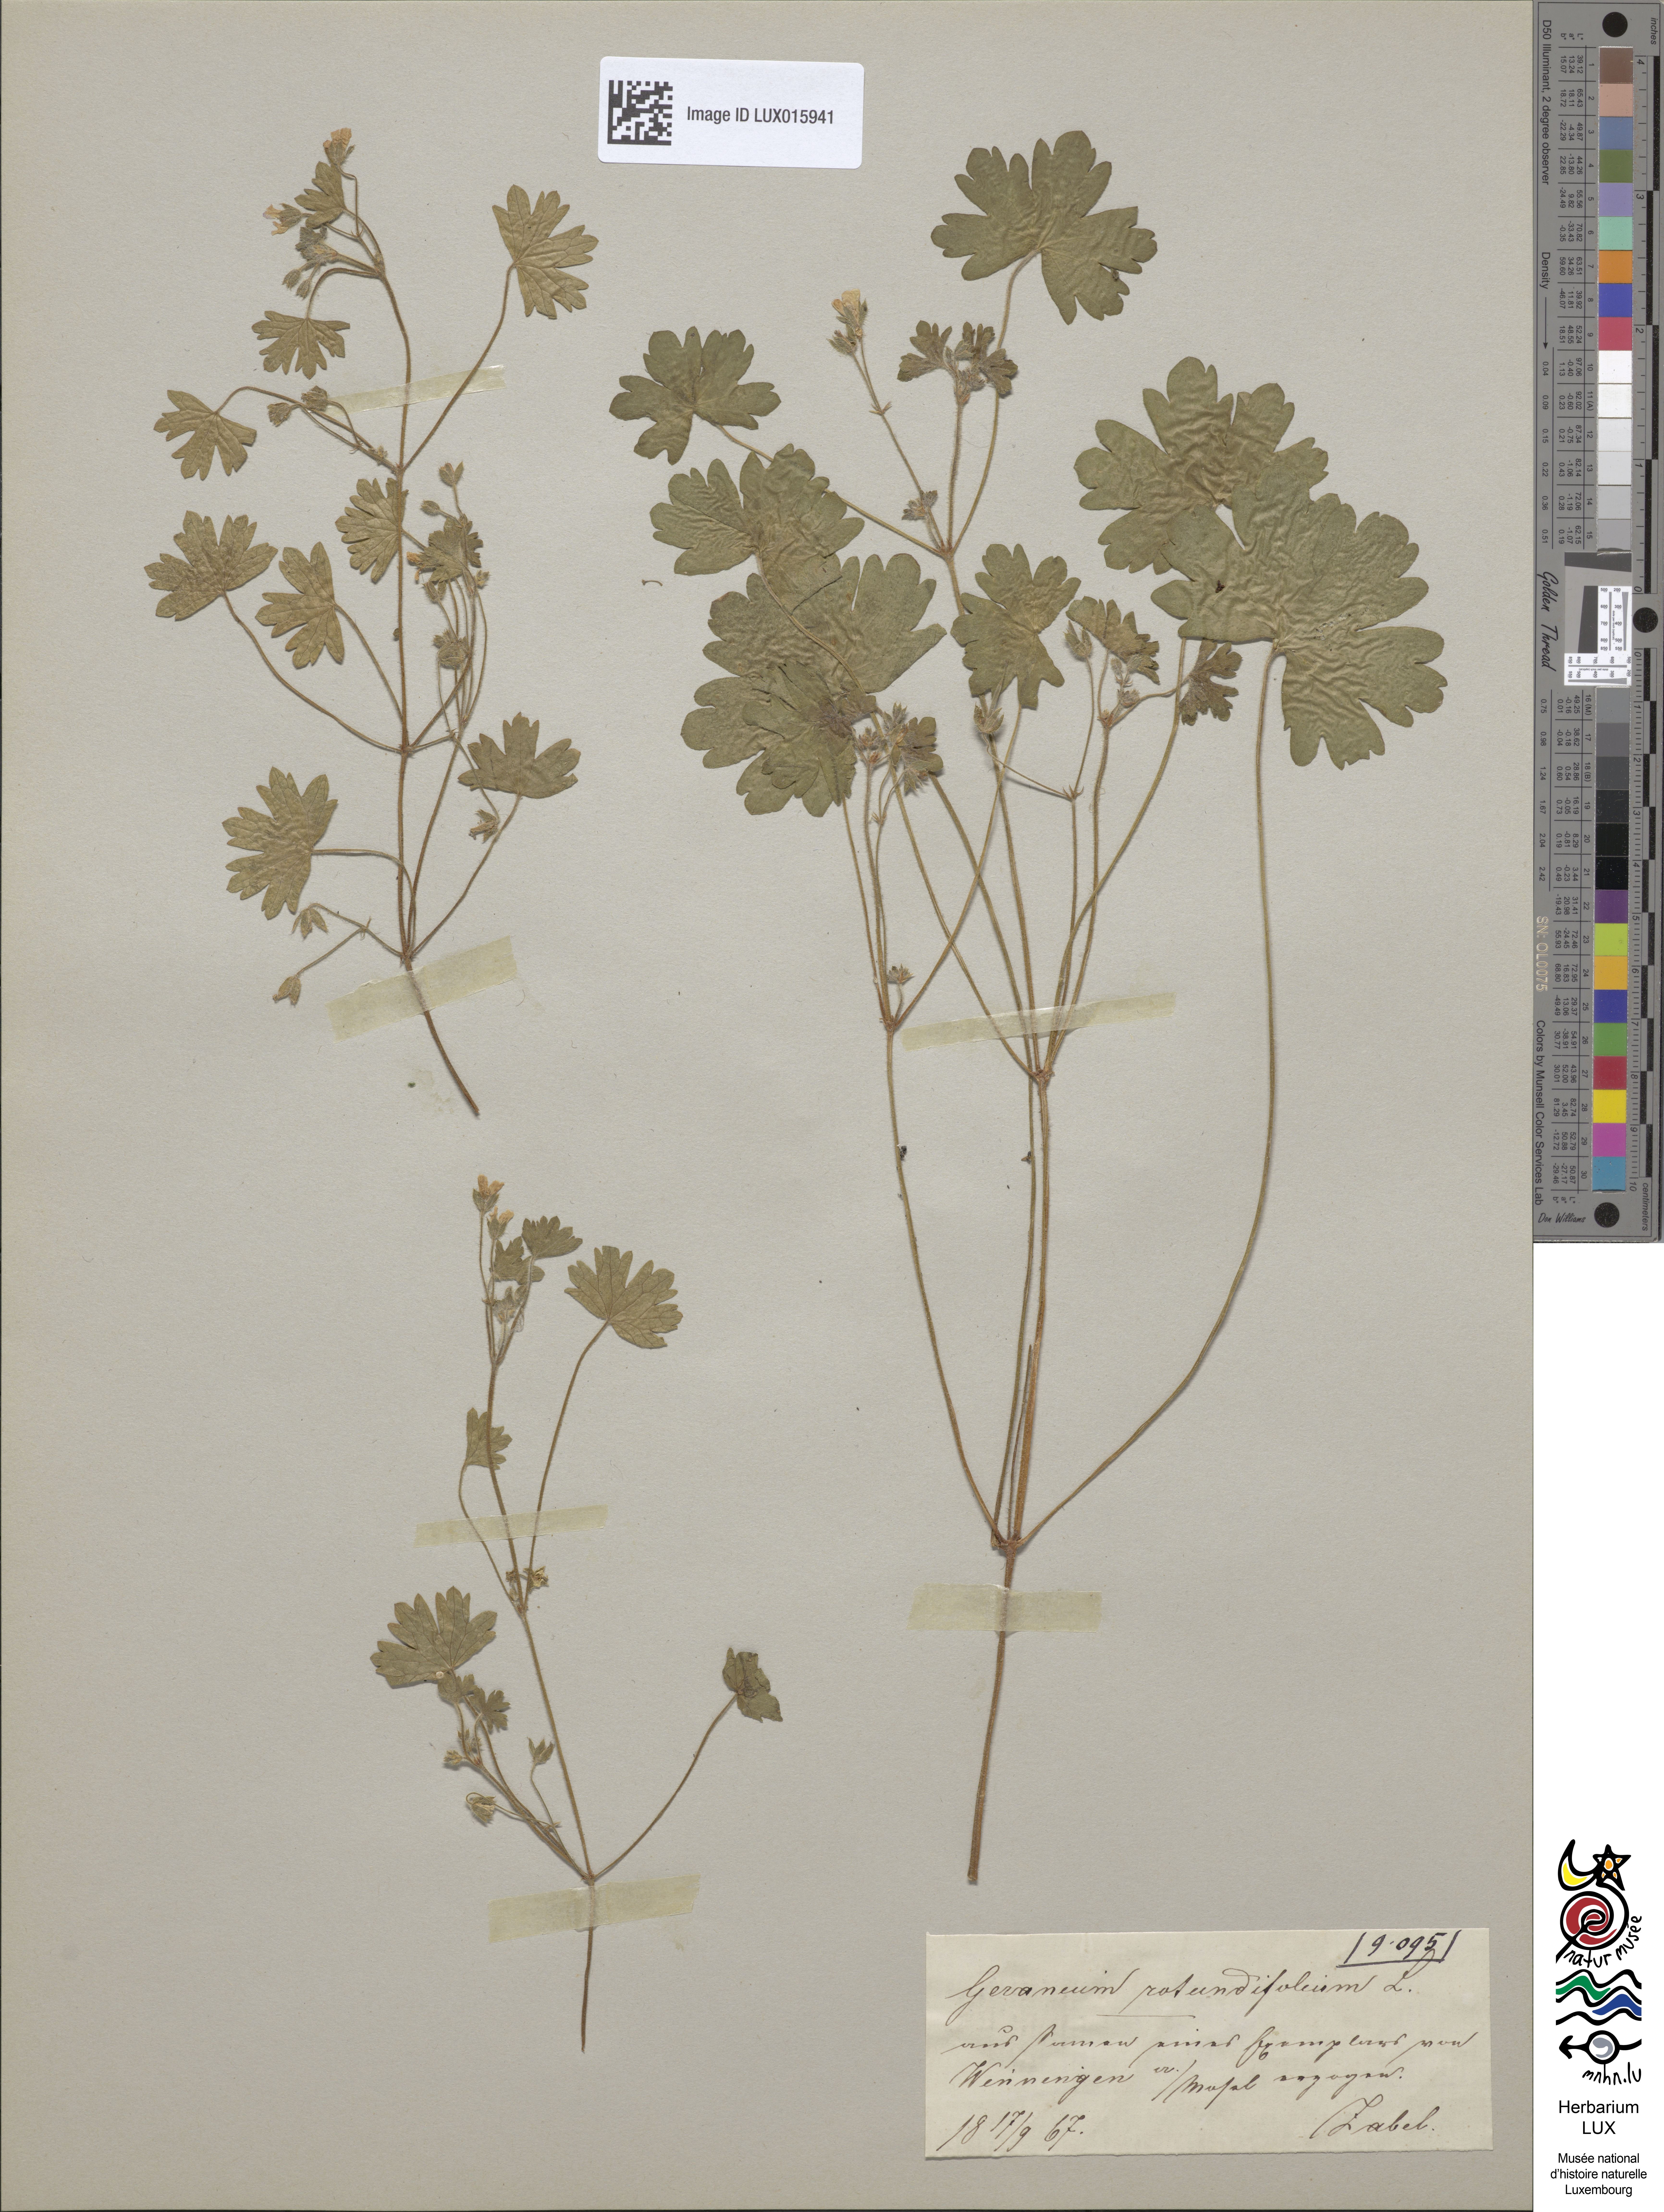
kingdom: Plantae
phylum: Tracheophyta
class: Magnoliopsida
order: Geraniales
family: Geraniaceae
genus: Geranium
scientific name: Geranium rotundifolium
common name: Round-leaved crane's-bill
